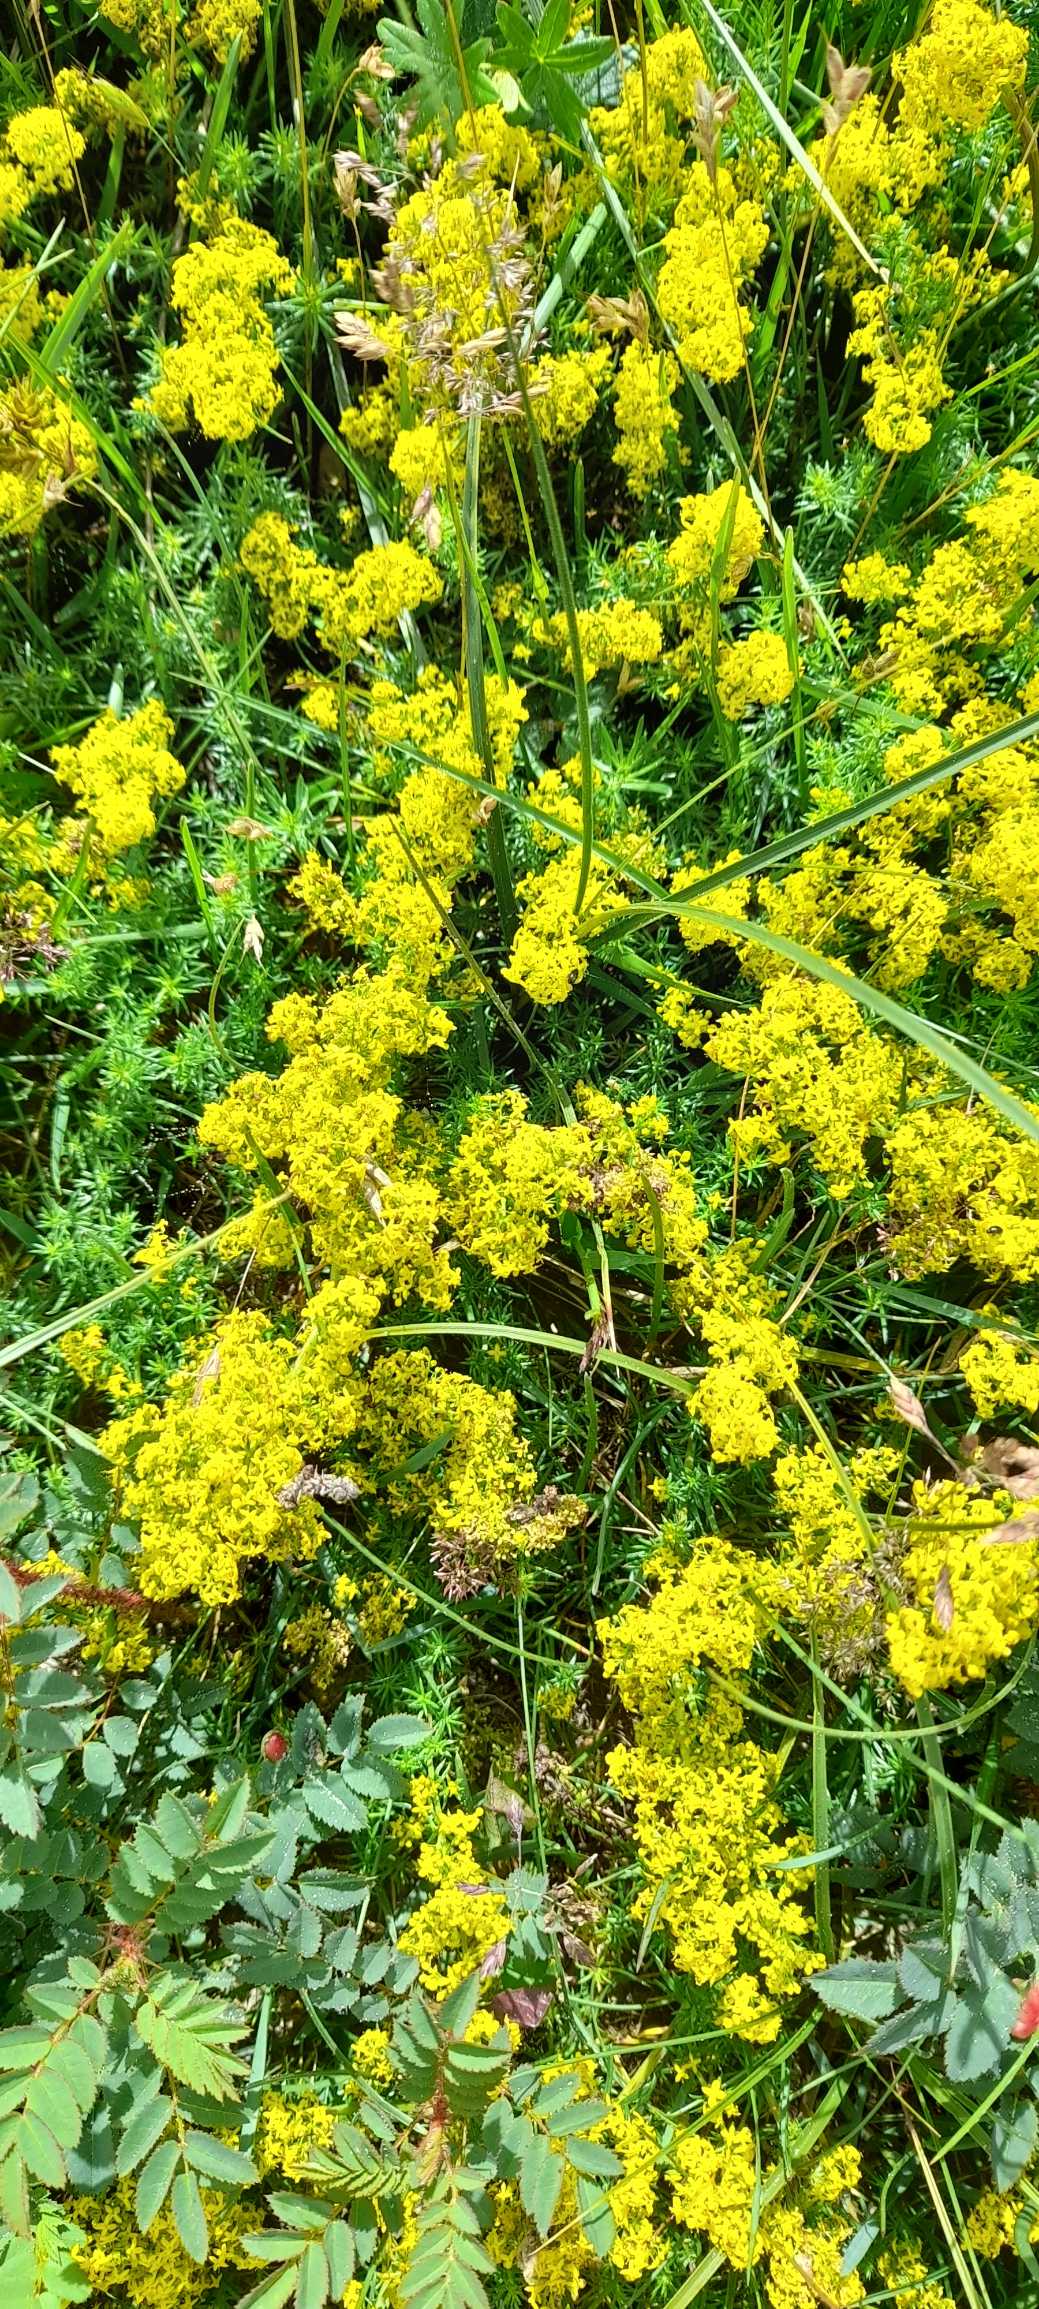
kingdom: Plantae
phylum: Tracheophyta
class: Magnoliopsida
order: Gentianales
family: Rubiaceae
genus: Galium
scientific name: Galium verum
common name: Gul snerre
